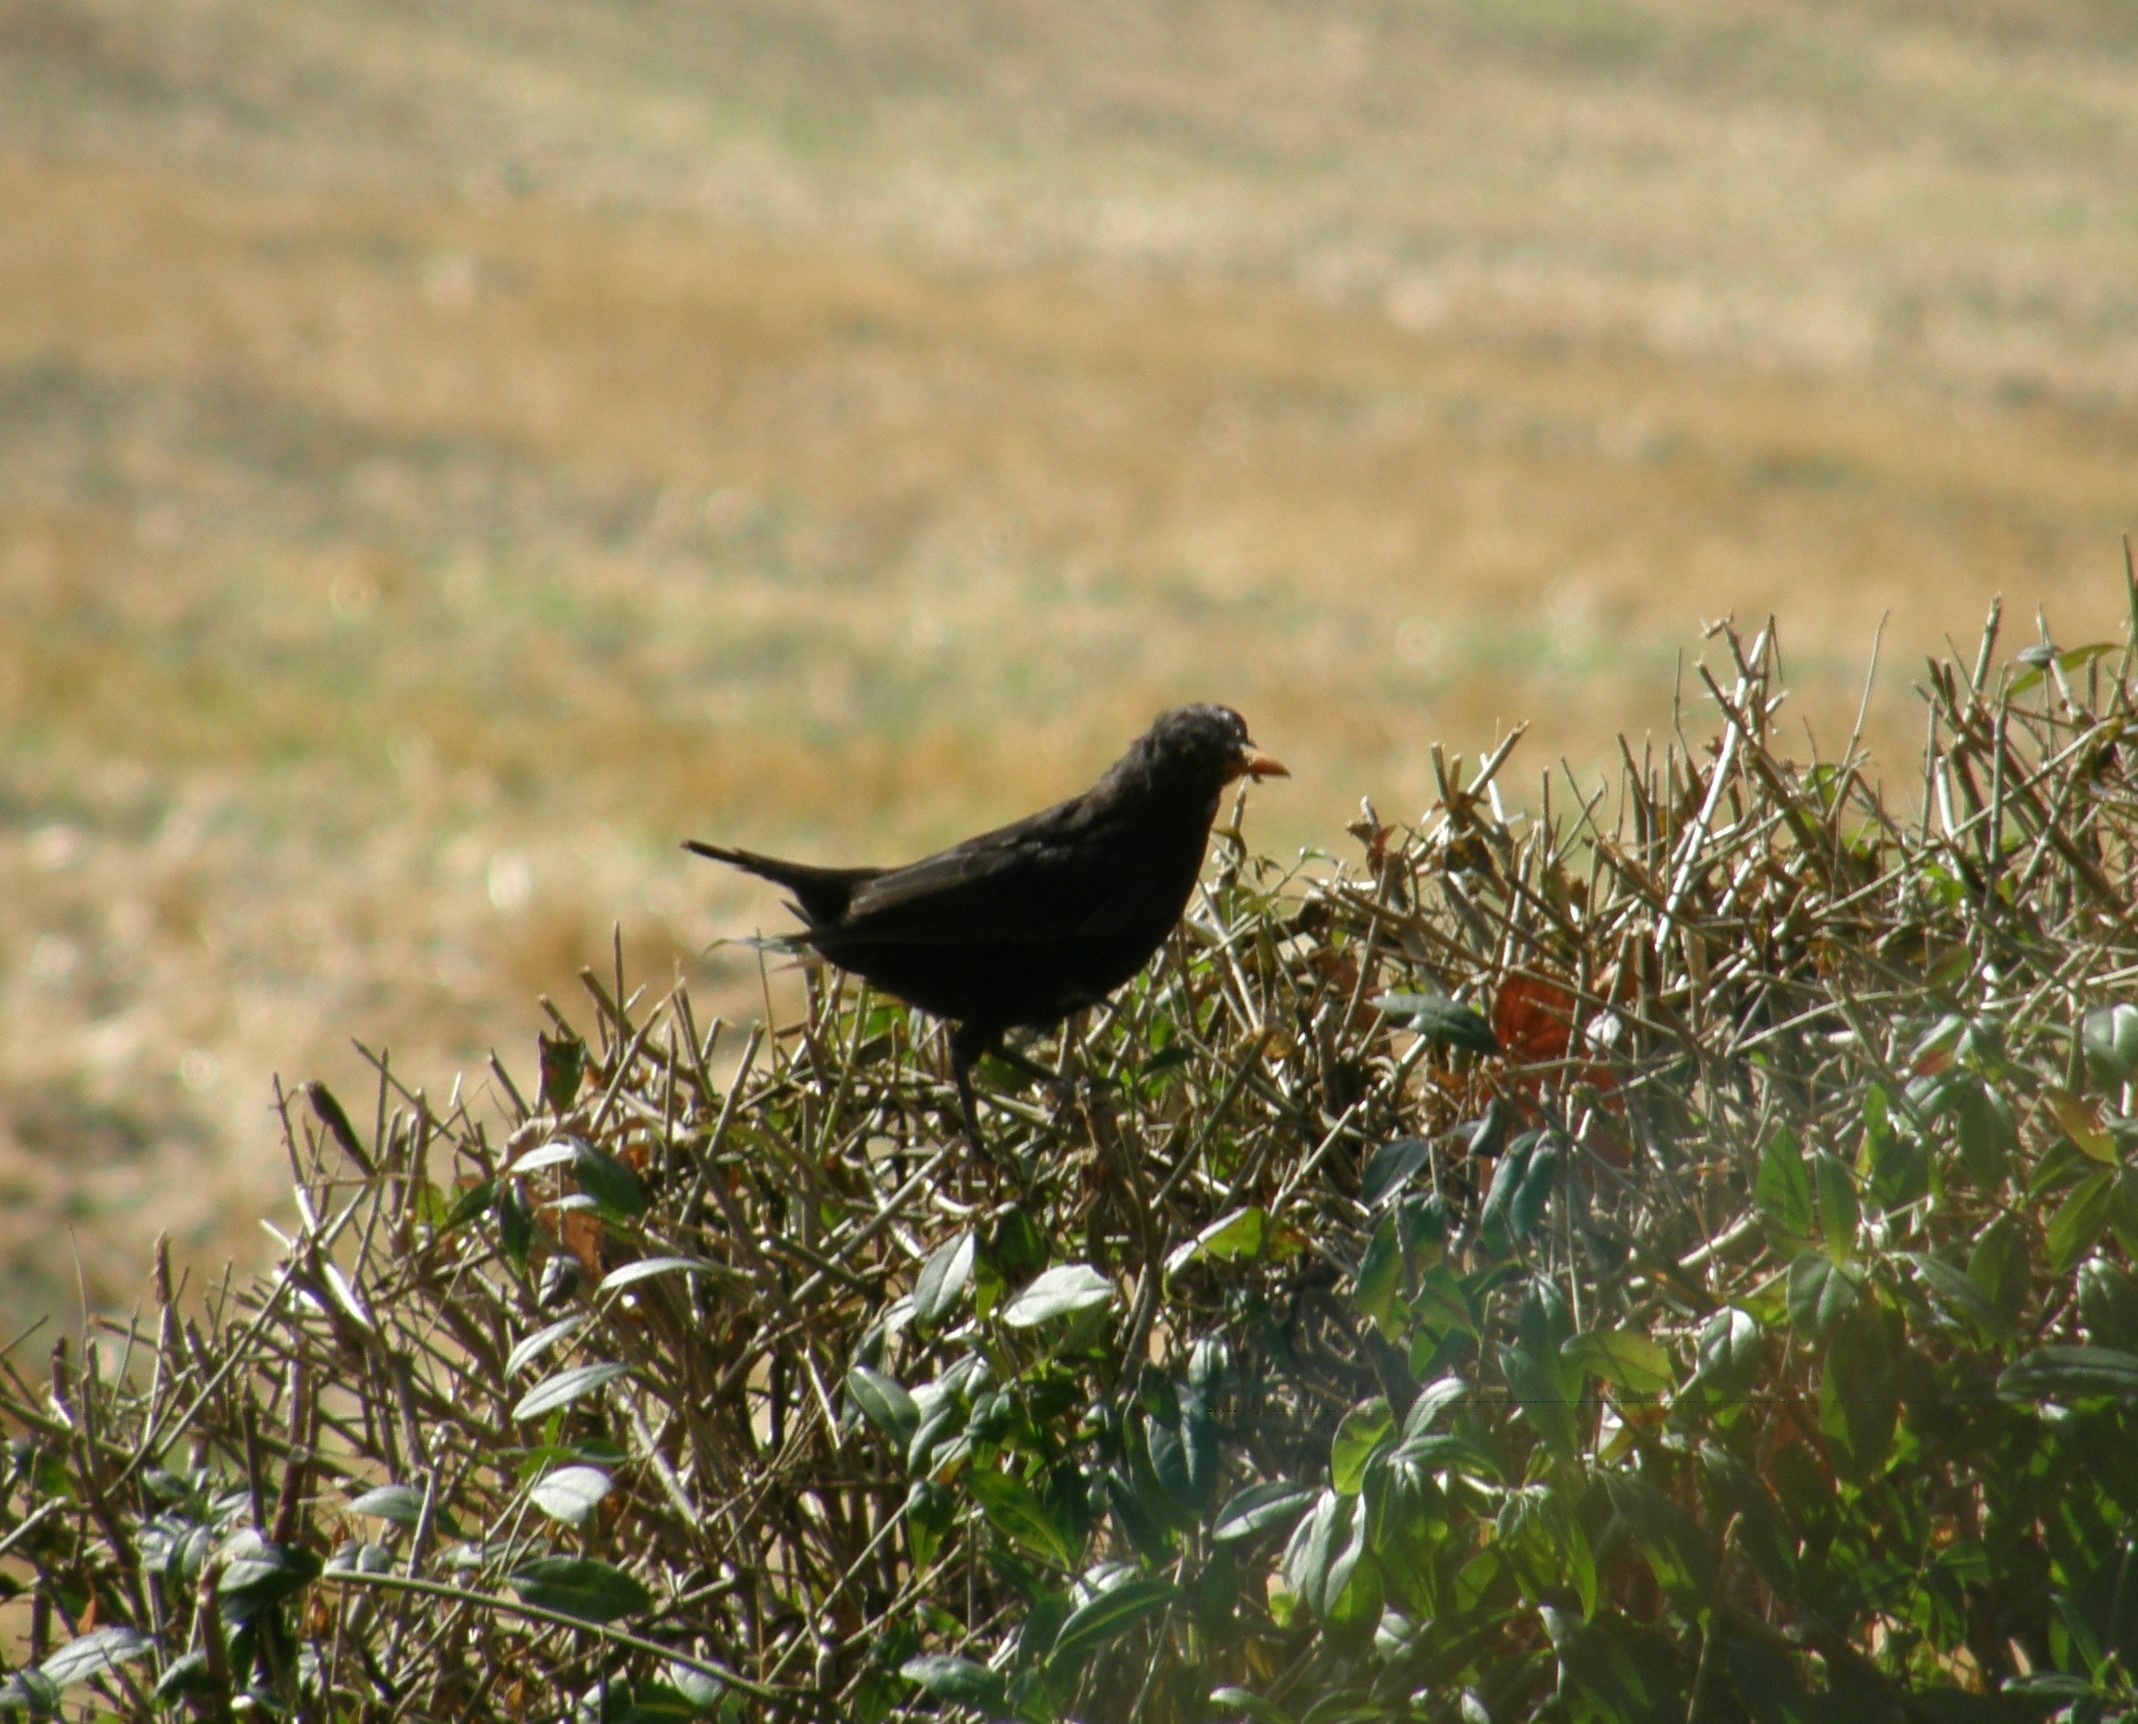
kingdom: Animalia
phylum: Chordata
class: Aves
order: Passeriformes
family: Turdidae
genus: Turdus
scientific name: Turdus merula
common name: Solsort
